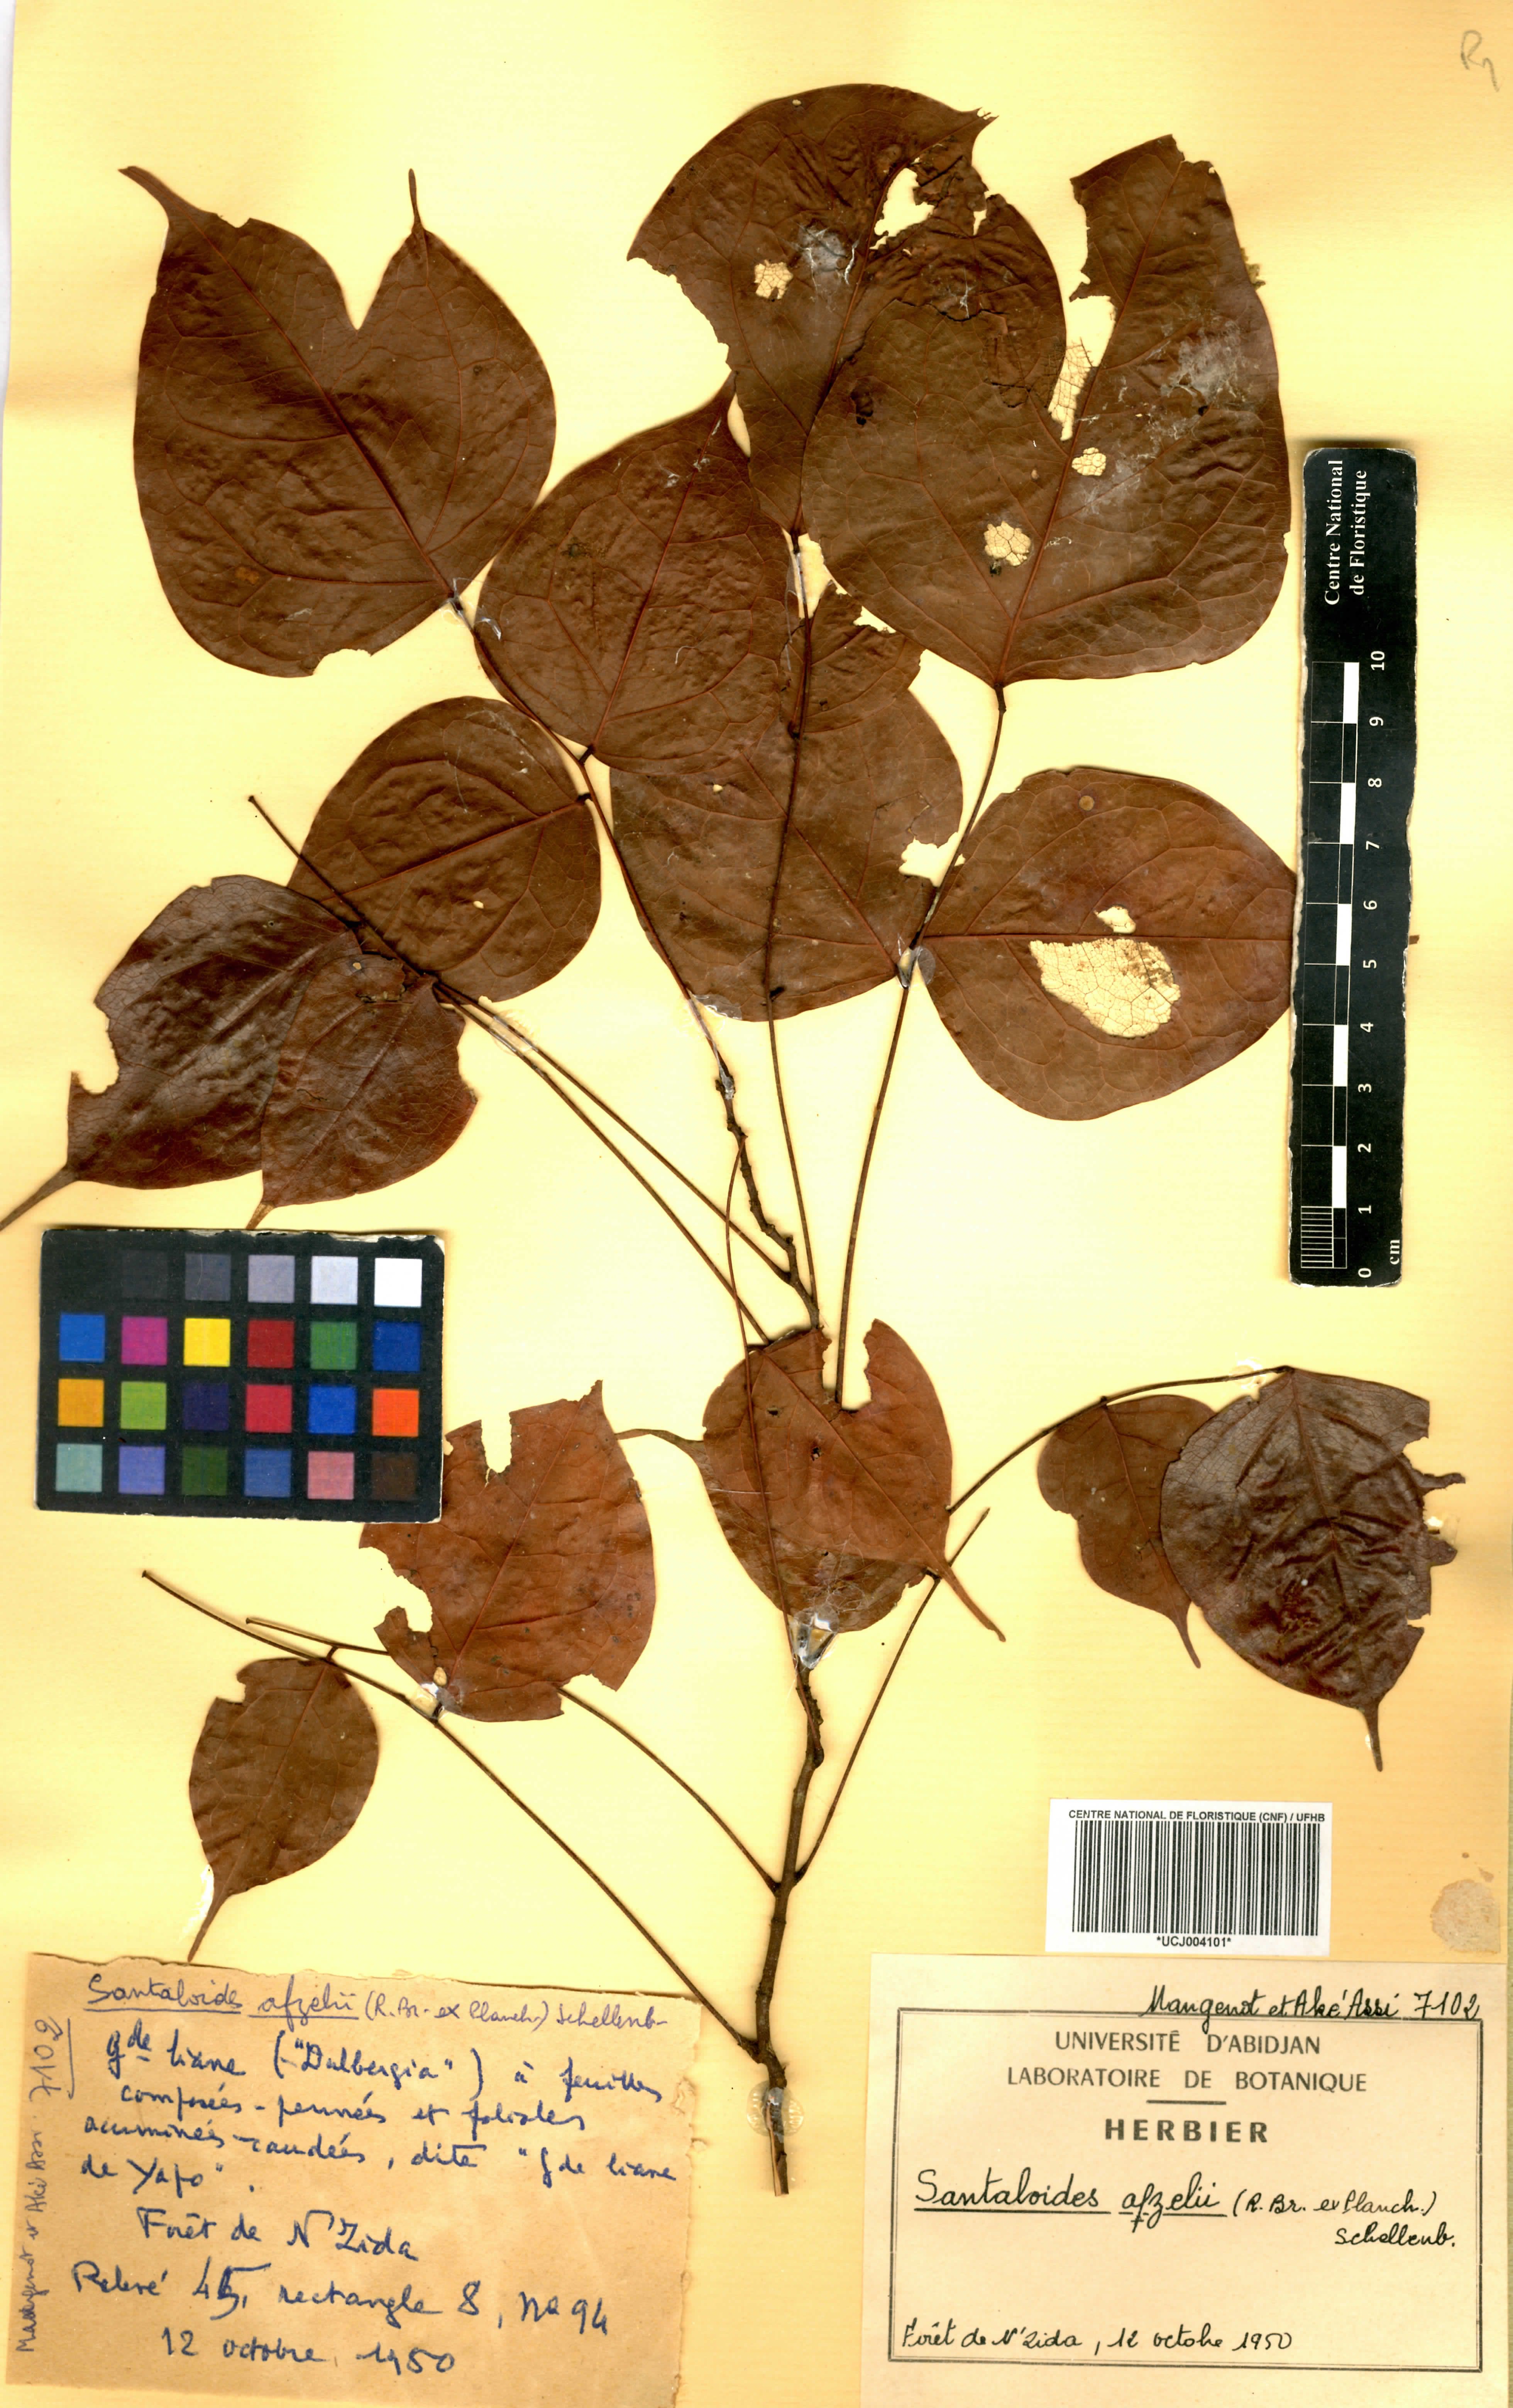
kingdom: Plantae
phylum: Tracheophyta
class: Magnoliopsida
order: Oxalidales
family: Connaraceae
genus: Rourea
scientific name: Rourea minor
